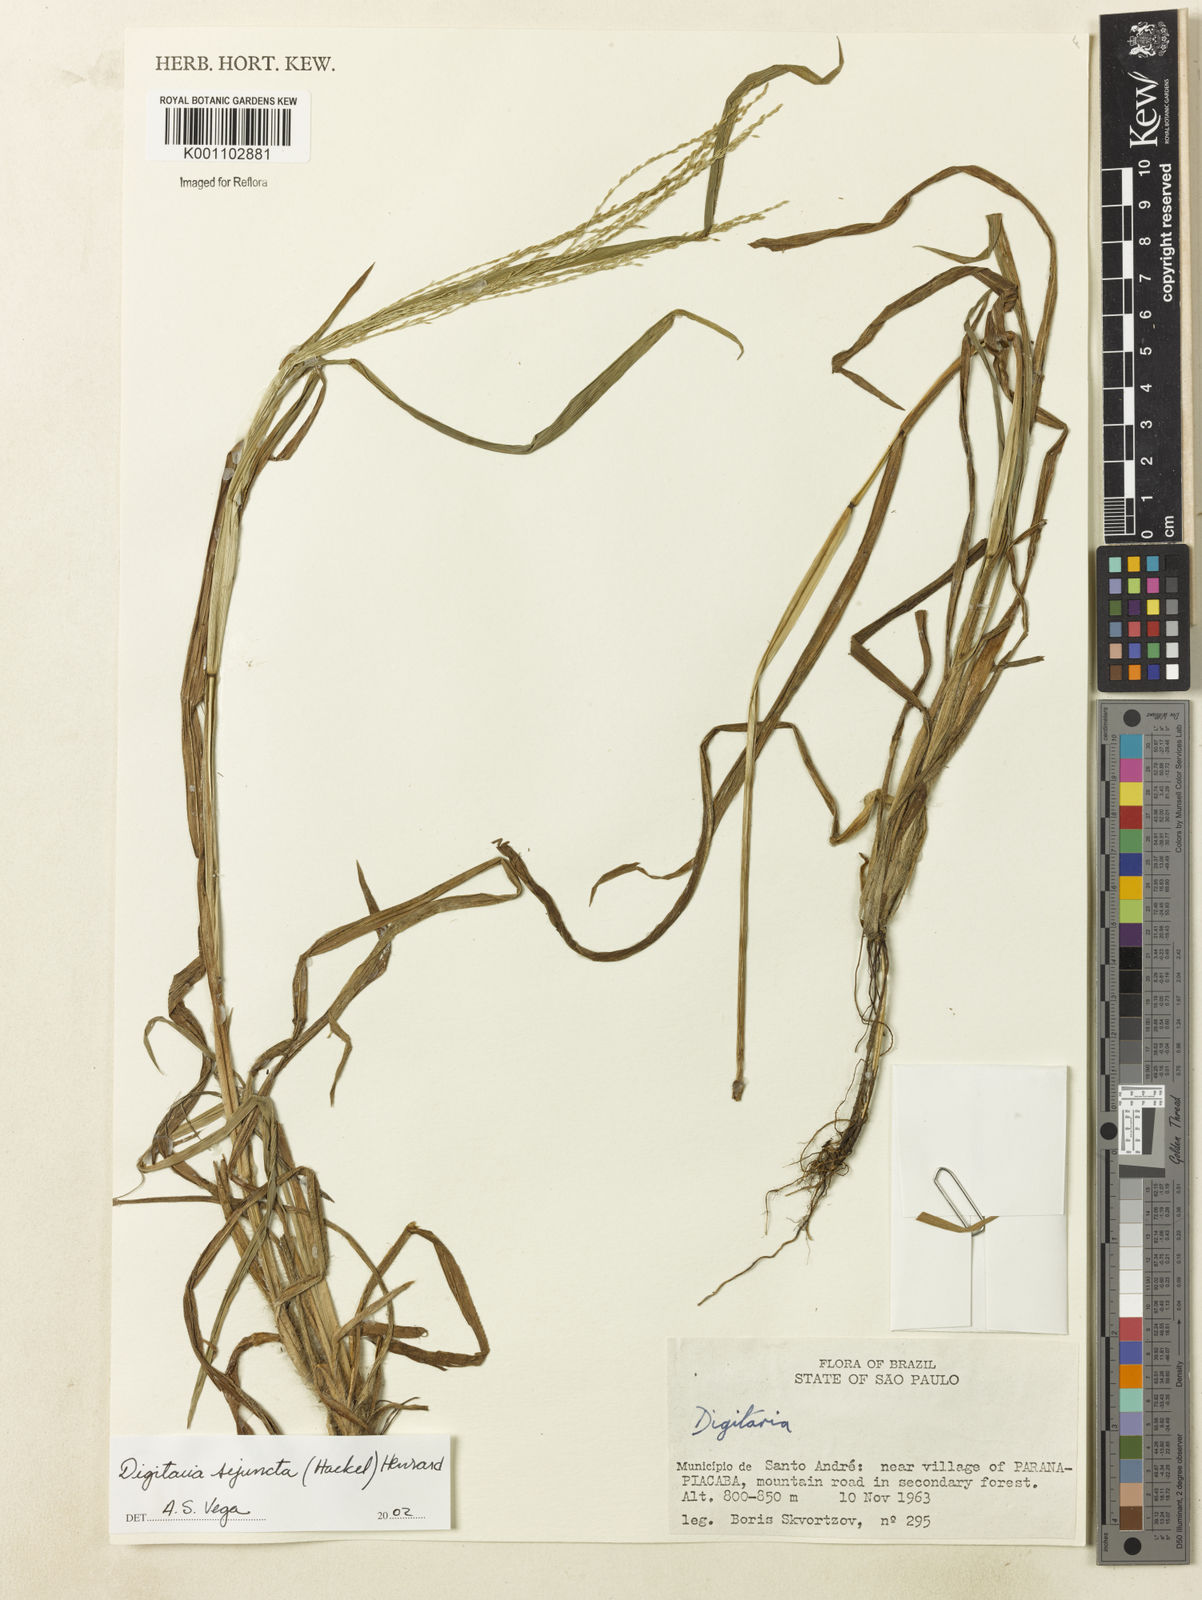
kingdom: Plantae
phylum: Tracheophyta
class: Liliopsida
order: Poales
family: Poaceae
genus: Digitaria
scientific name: Digitaria sejuncta
